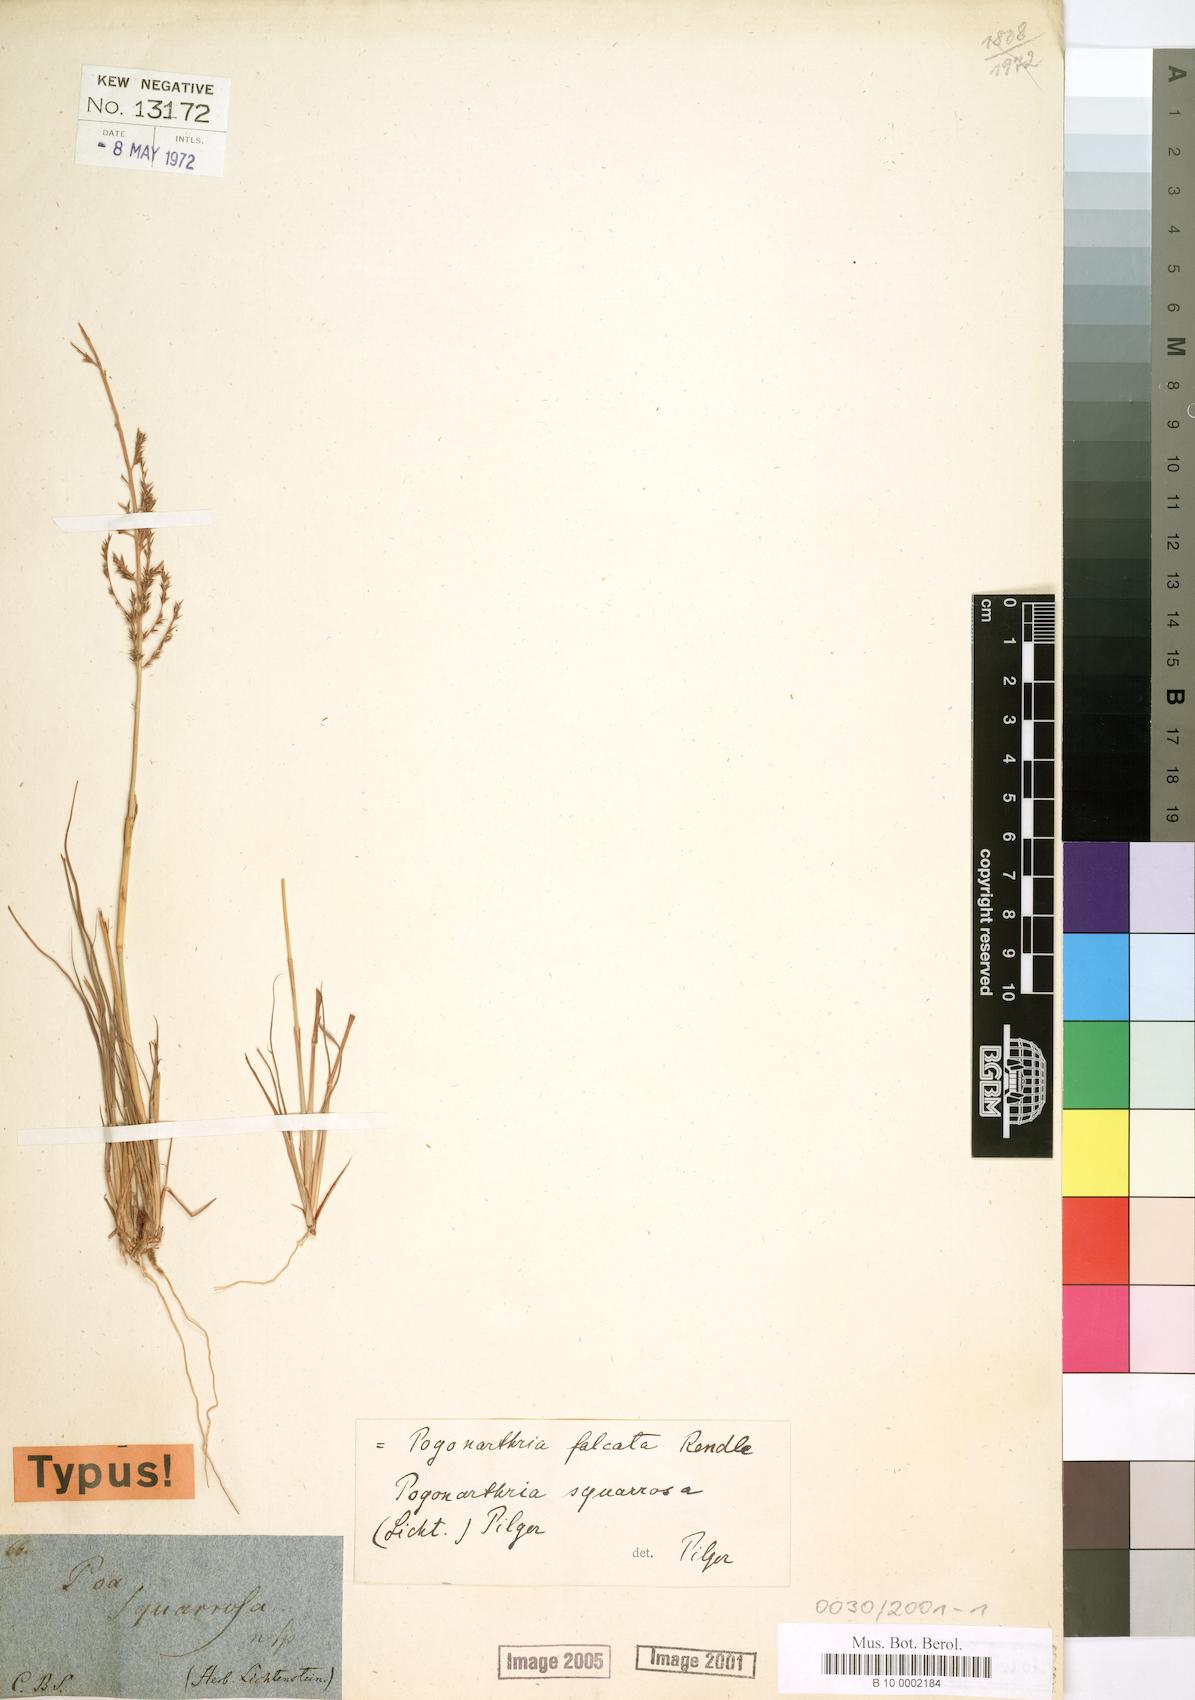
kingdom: Plantae
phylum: Tracheophyta
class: Liliopsida
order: Poales
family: Poaceae
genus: Pogonarthria
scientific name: Pogonarthria squarrosa
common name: Grass
